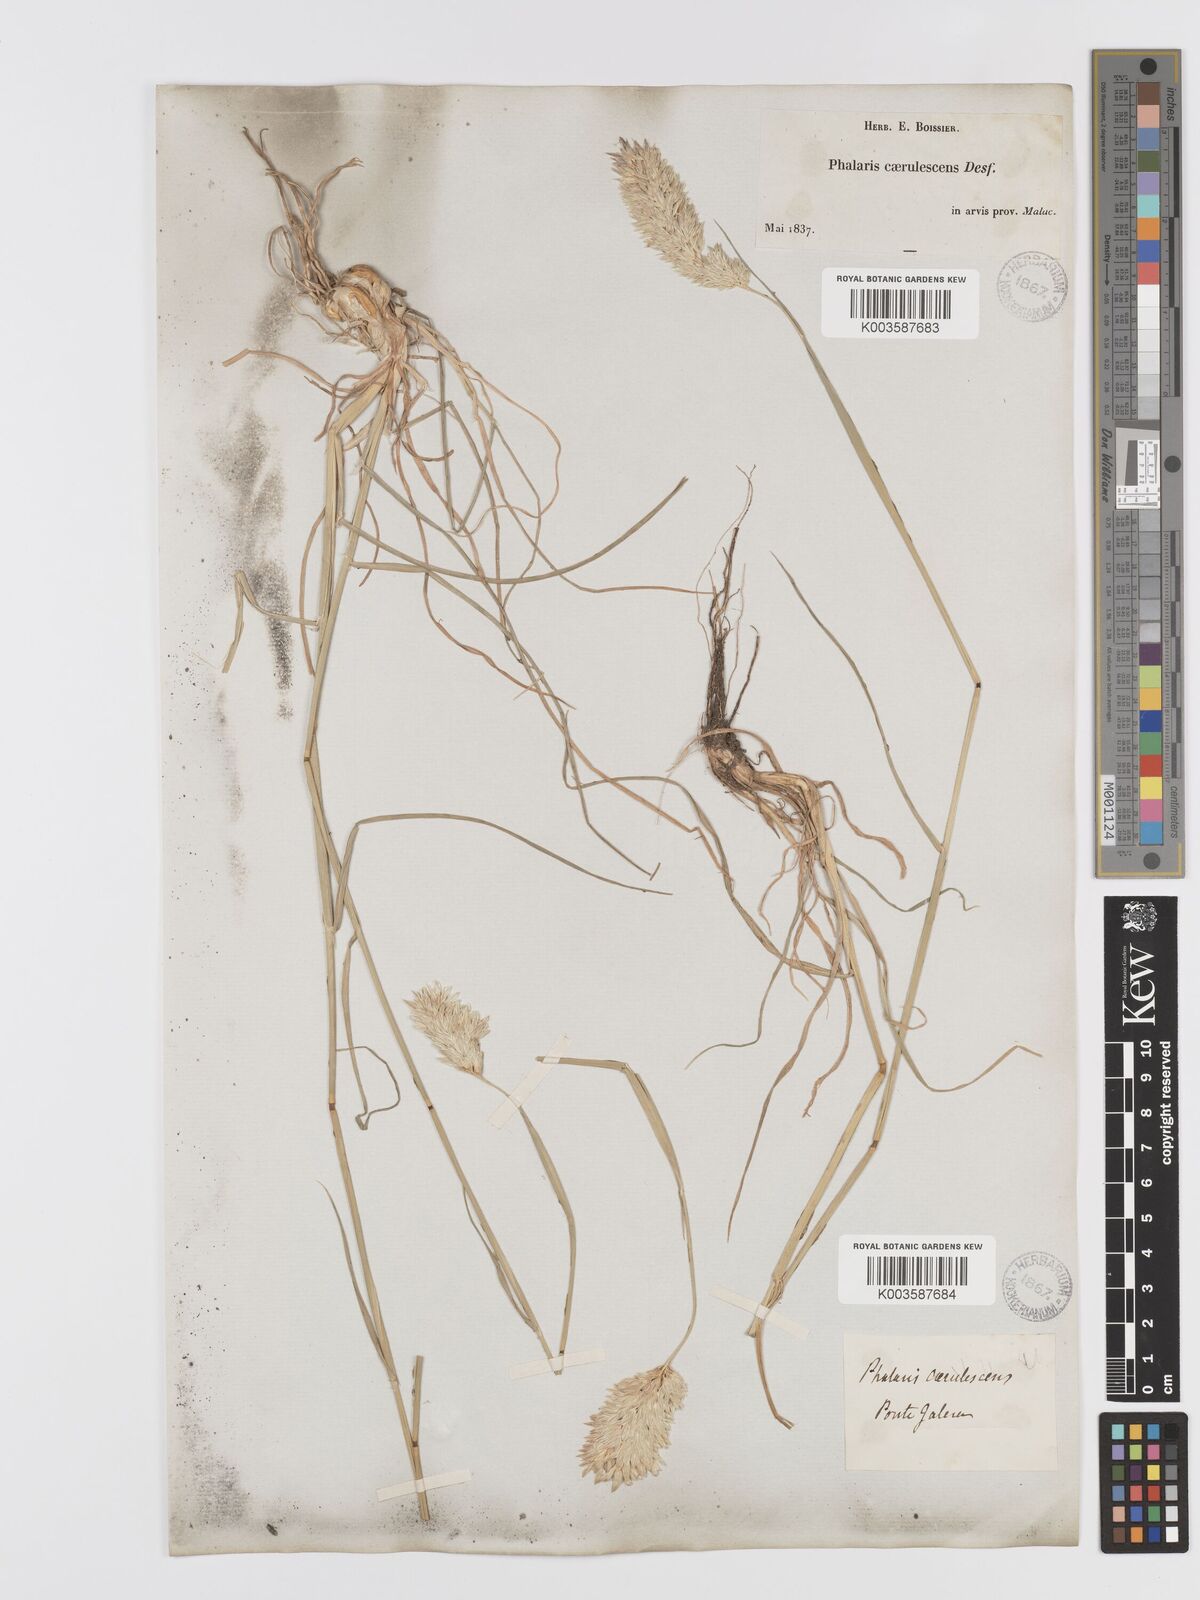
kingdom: Plantae
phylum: Tracheophyta
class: Liliopsida
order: Poales
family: Poaceae
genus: Phalaris
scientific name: Phalaris coerulescens
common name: Sunolgrass
